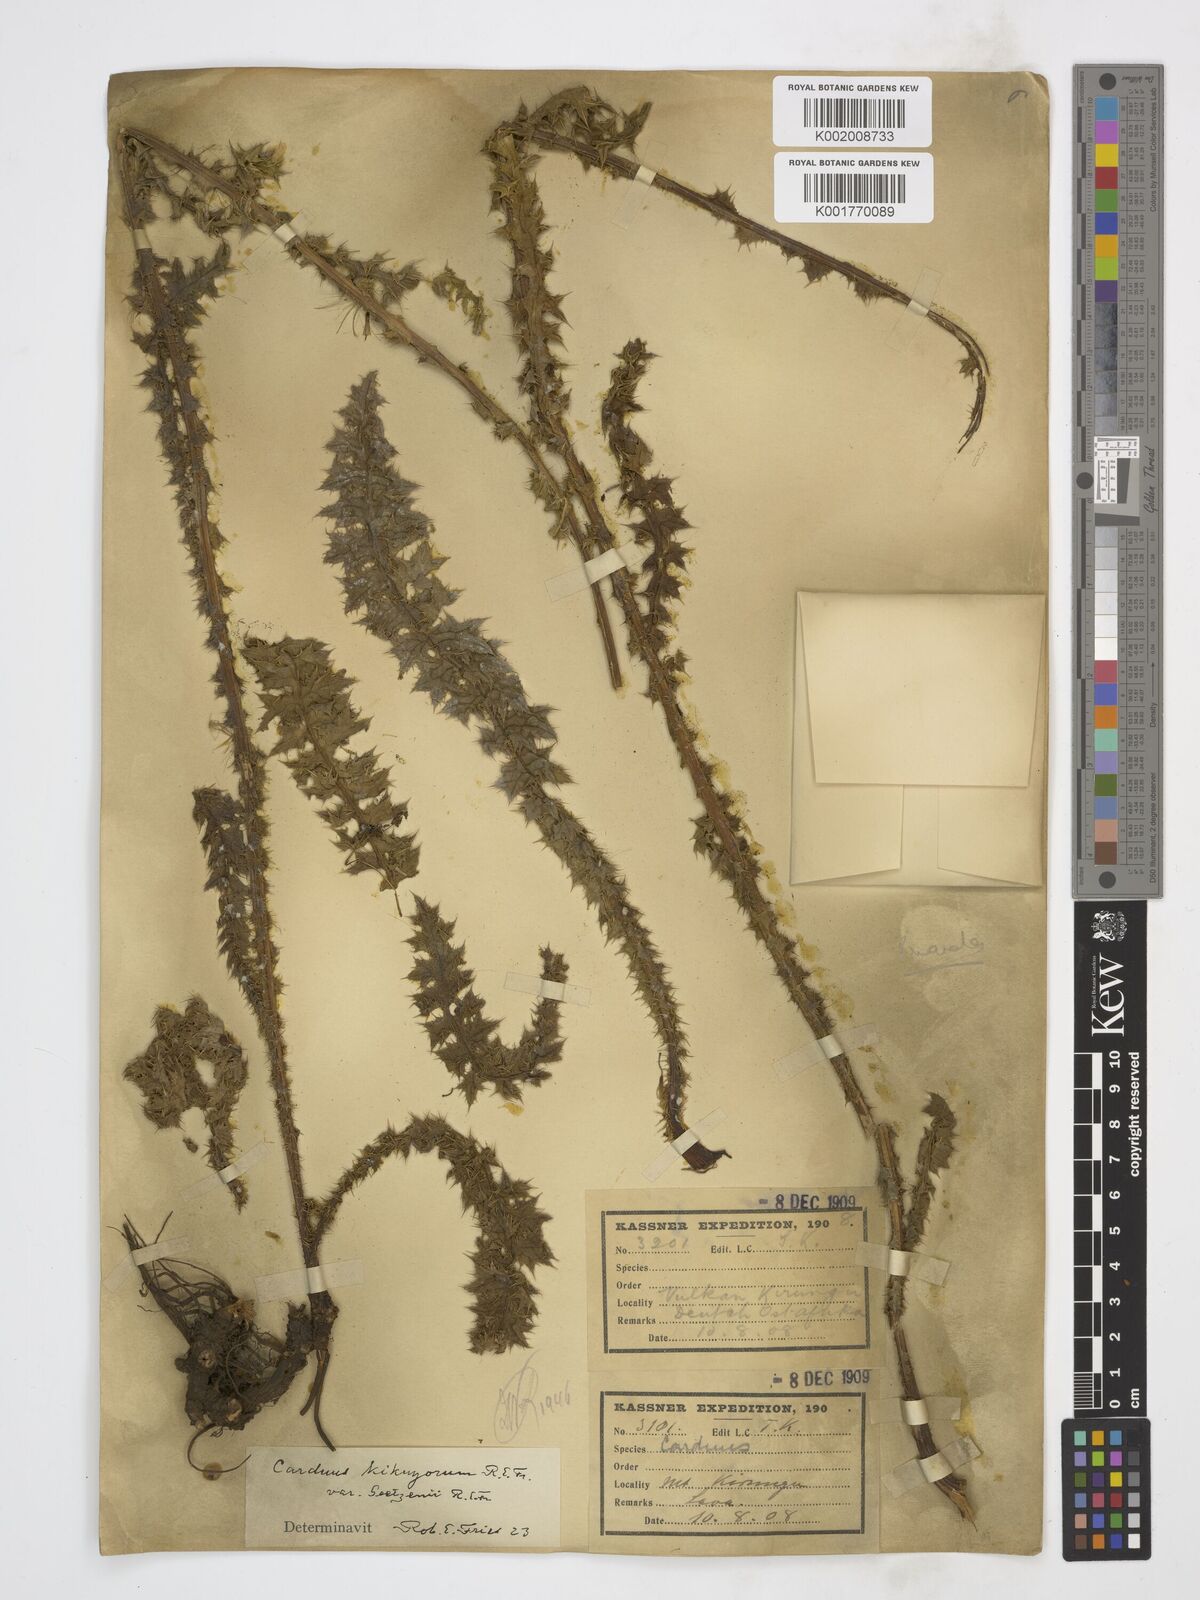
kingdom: Plantae
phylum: Tracheophyta
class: Magnoliopsida
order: Asterales
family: Asteraceae
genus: Carduus
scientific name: Carduus nyassanus
